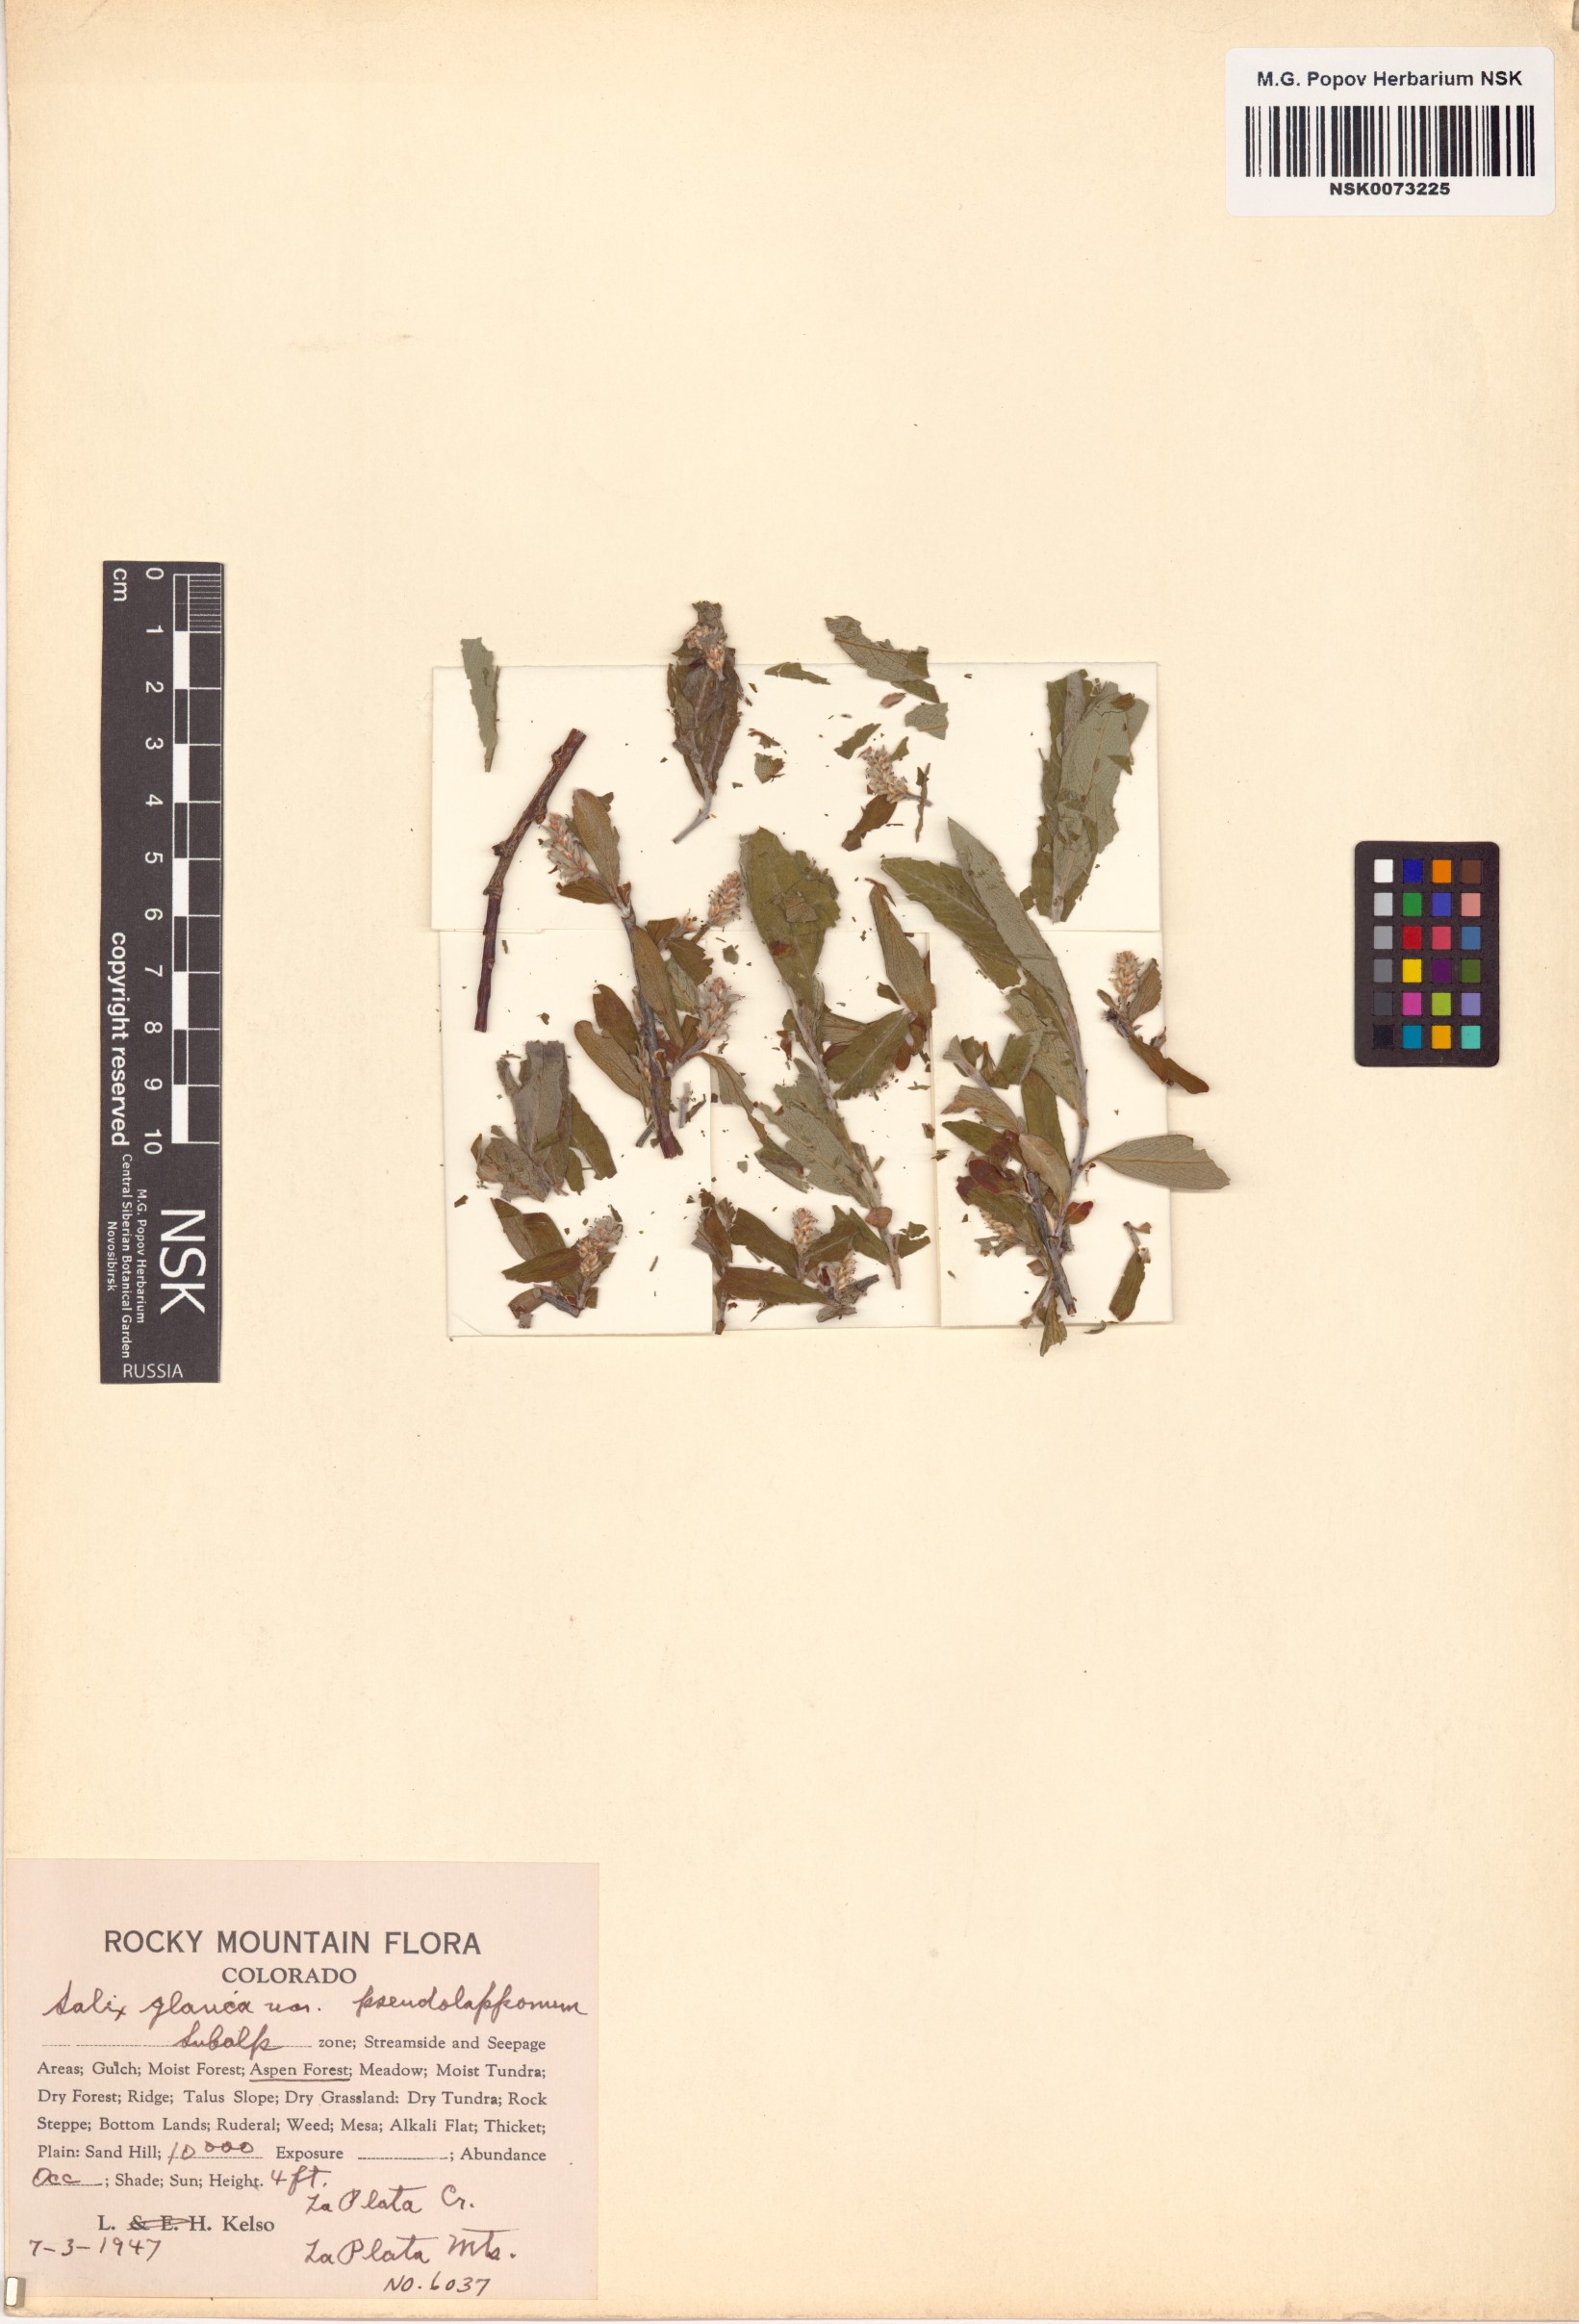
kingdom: Plantae
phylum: Tracheophyta
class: Magnoliopsida
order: Malpighiales
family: Salicaceae
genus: Salix
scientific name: Salix glauca
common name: Glaucous willow
